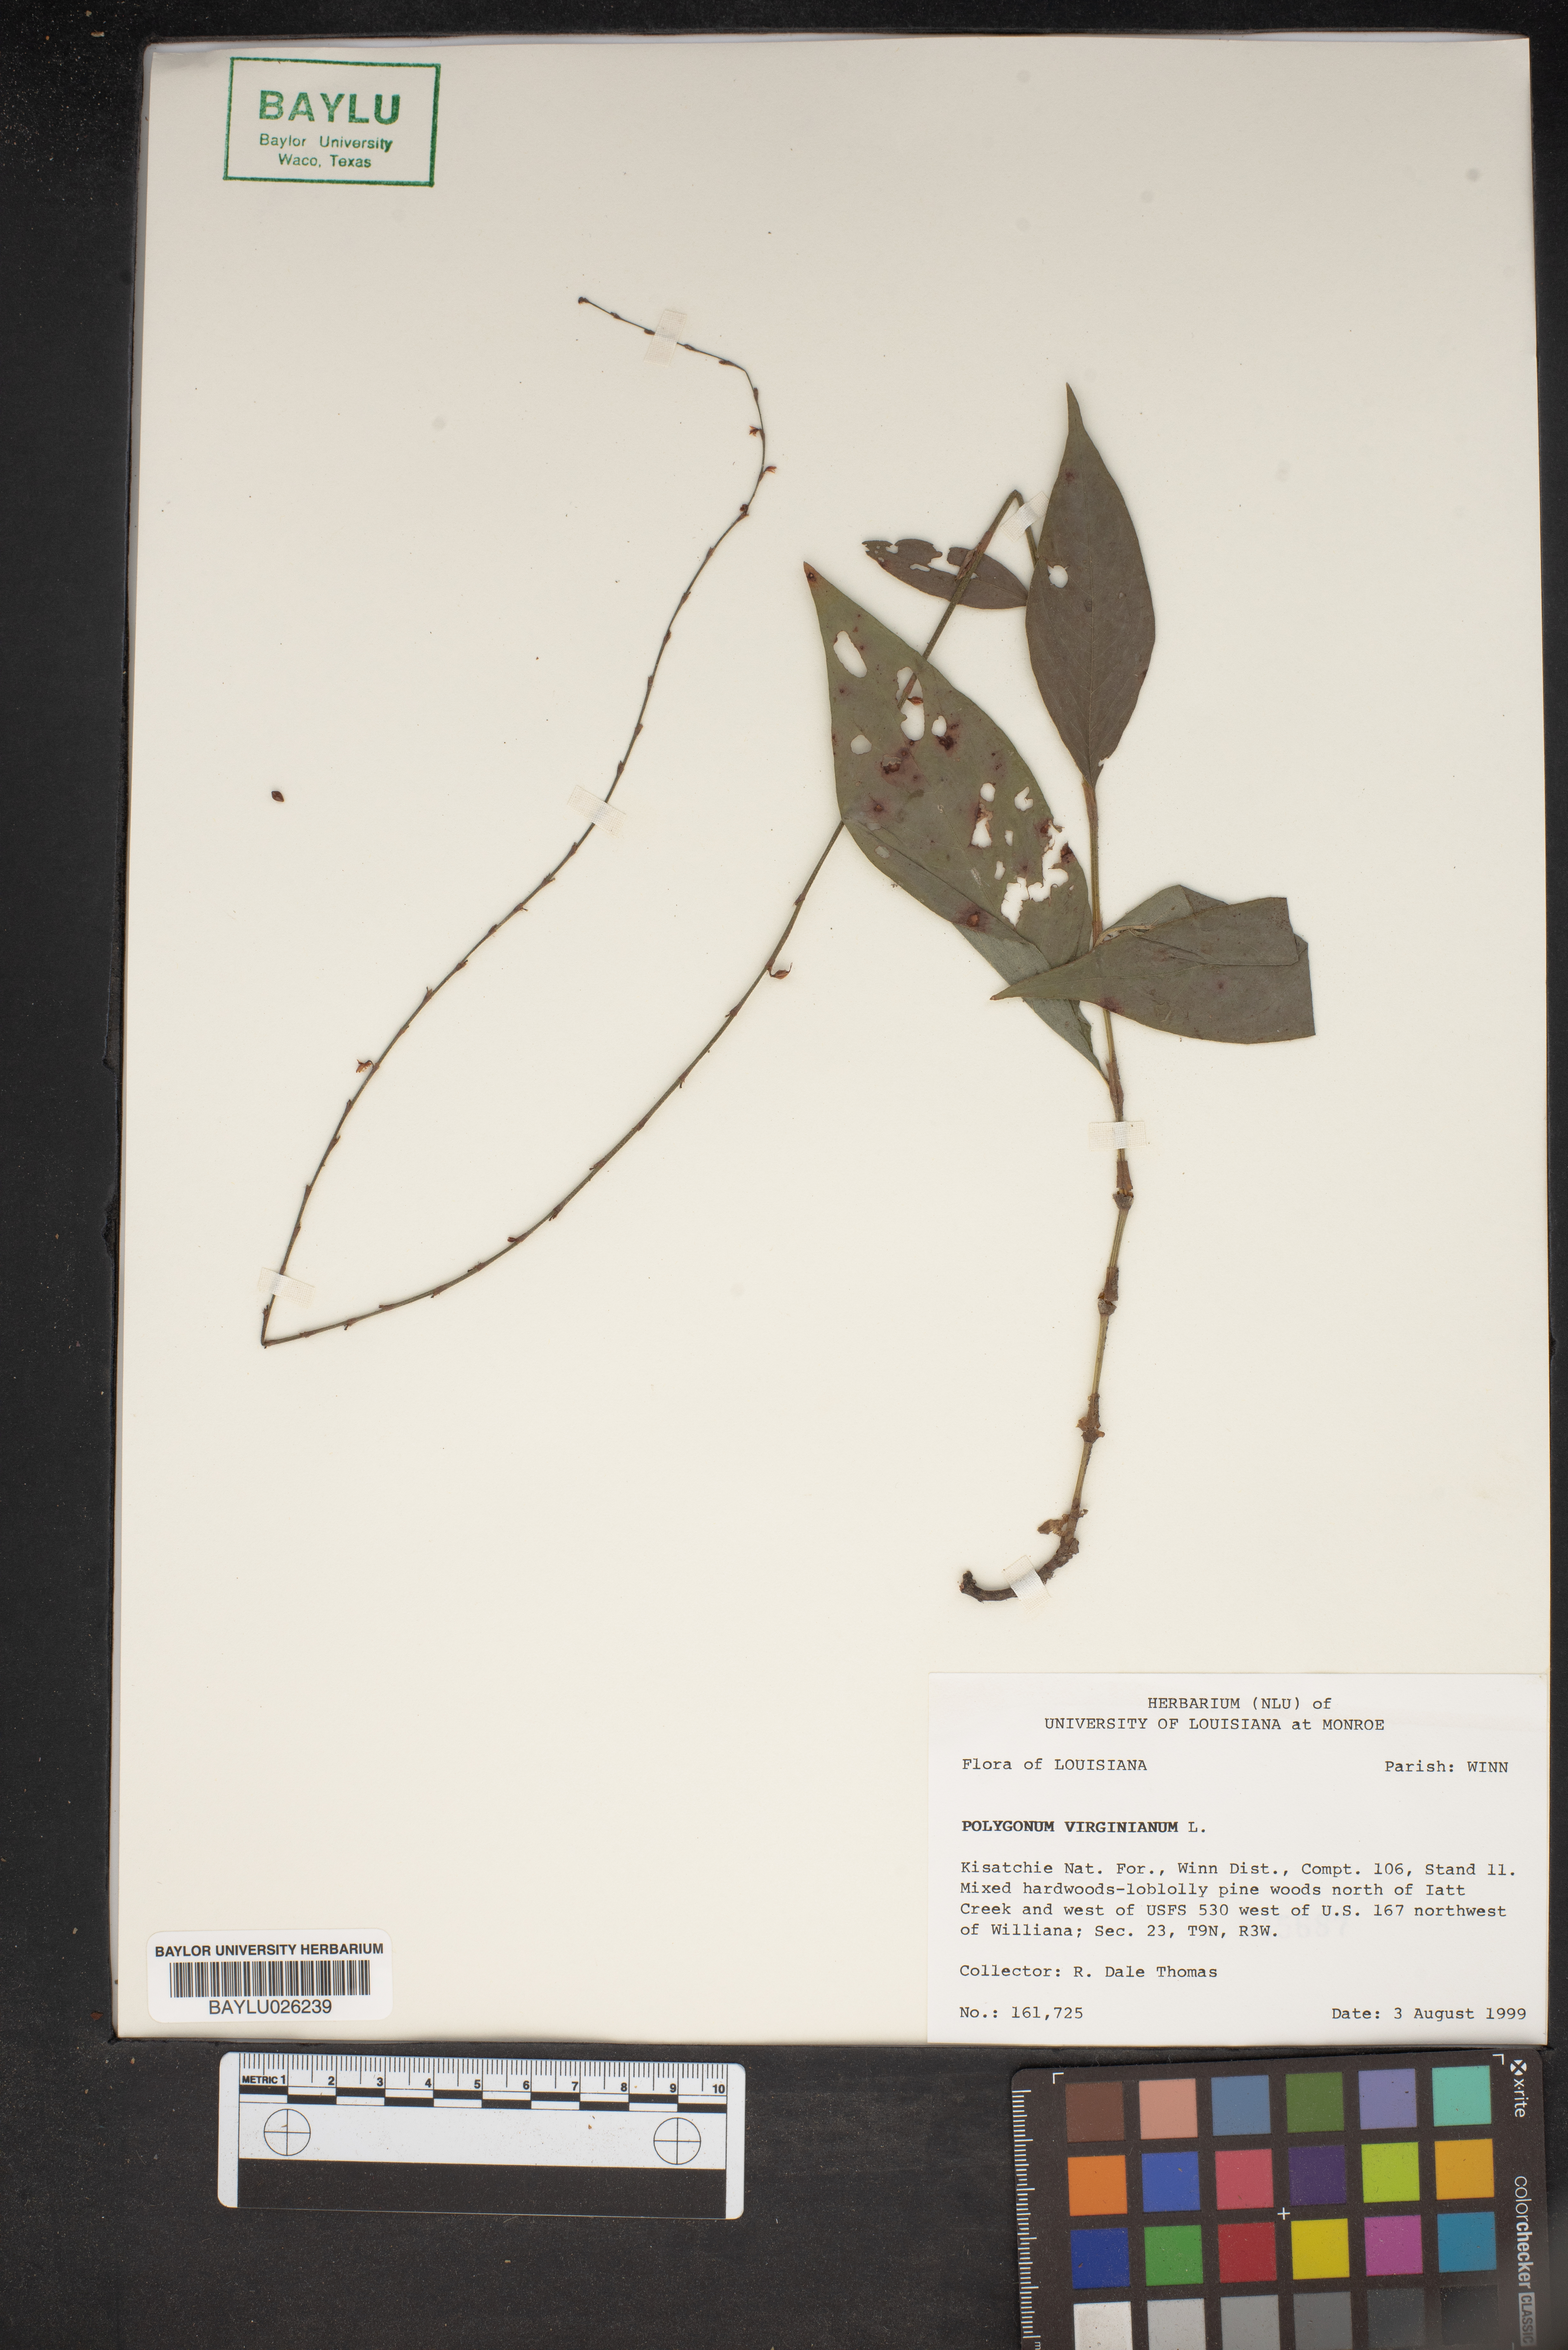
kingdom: Plantae
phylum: Tracheophyta
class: Magnoliopsida
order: Caryophyllales
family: Polygonaceae
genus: Persicaria
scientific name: Persicaria virginiana
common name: Jumpseed
